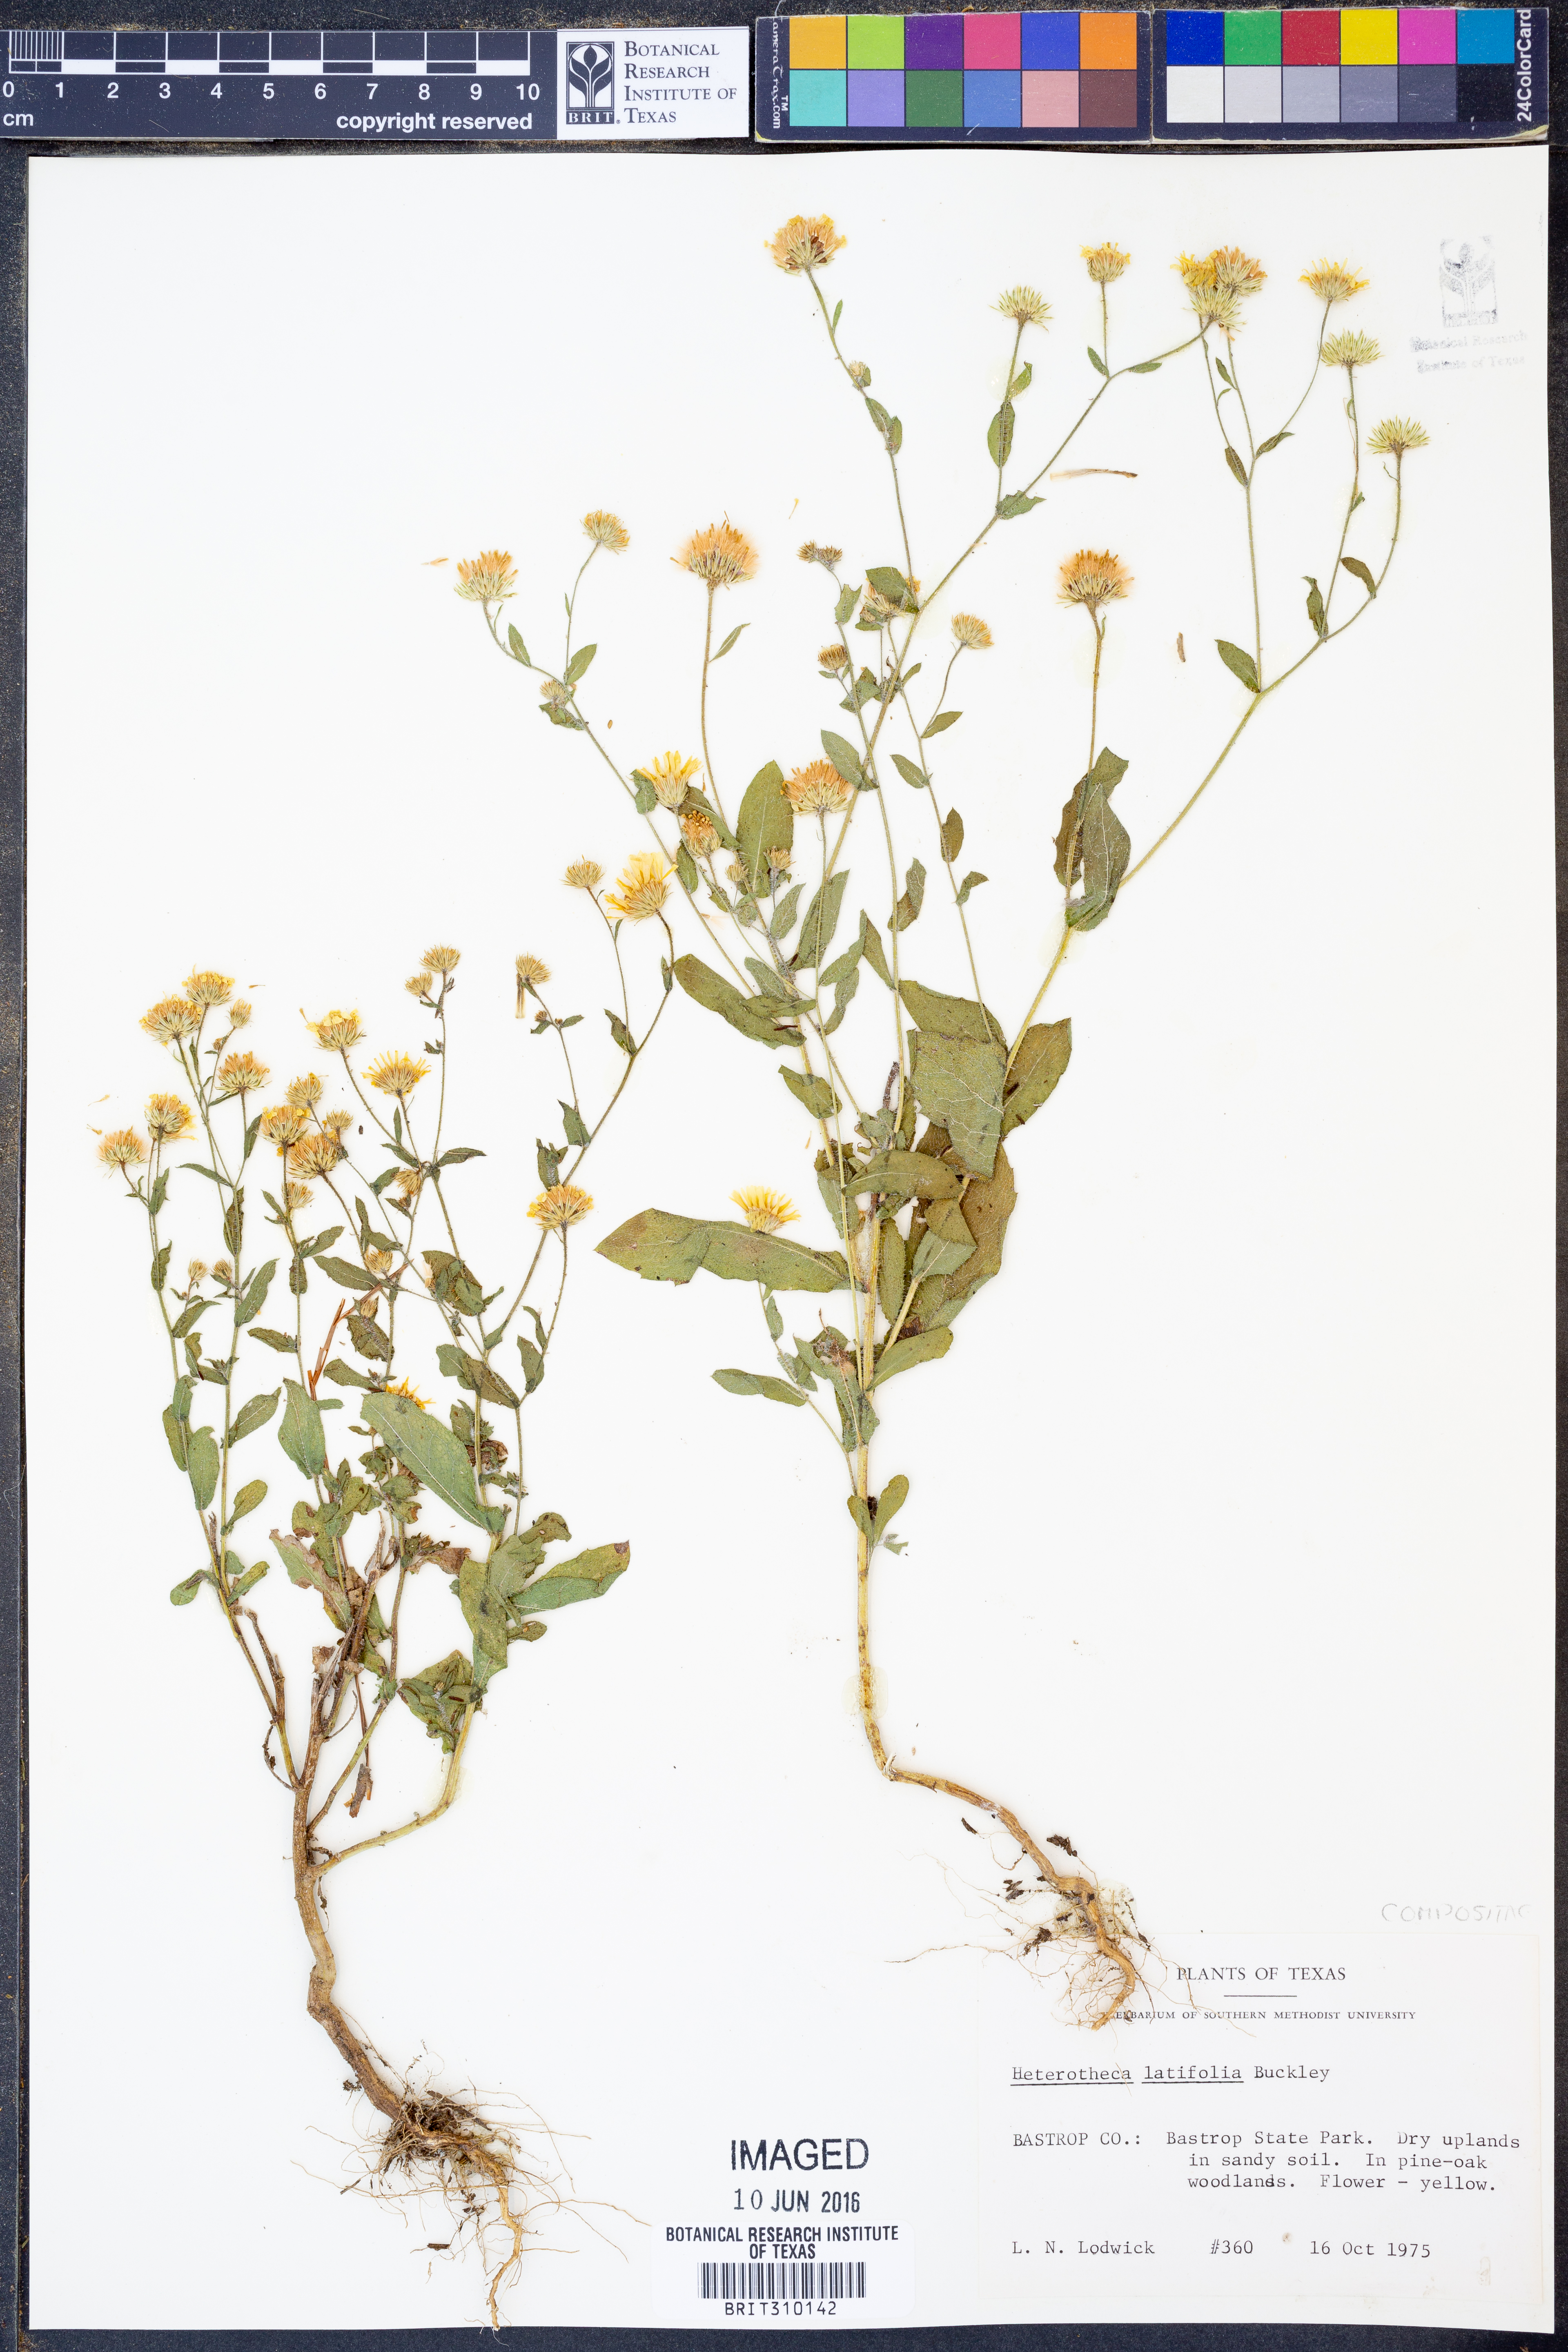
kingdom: Plantae
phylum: Tracheophyta
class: Magnoliopsida
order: Asterales
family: Asteraceae
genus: Heterotheca
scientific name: Heterotheca subaxillaris
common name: Camphorweed
